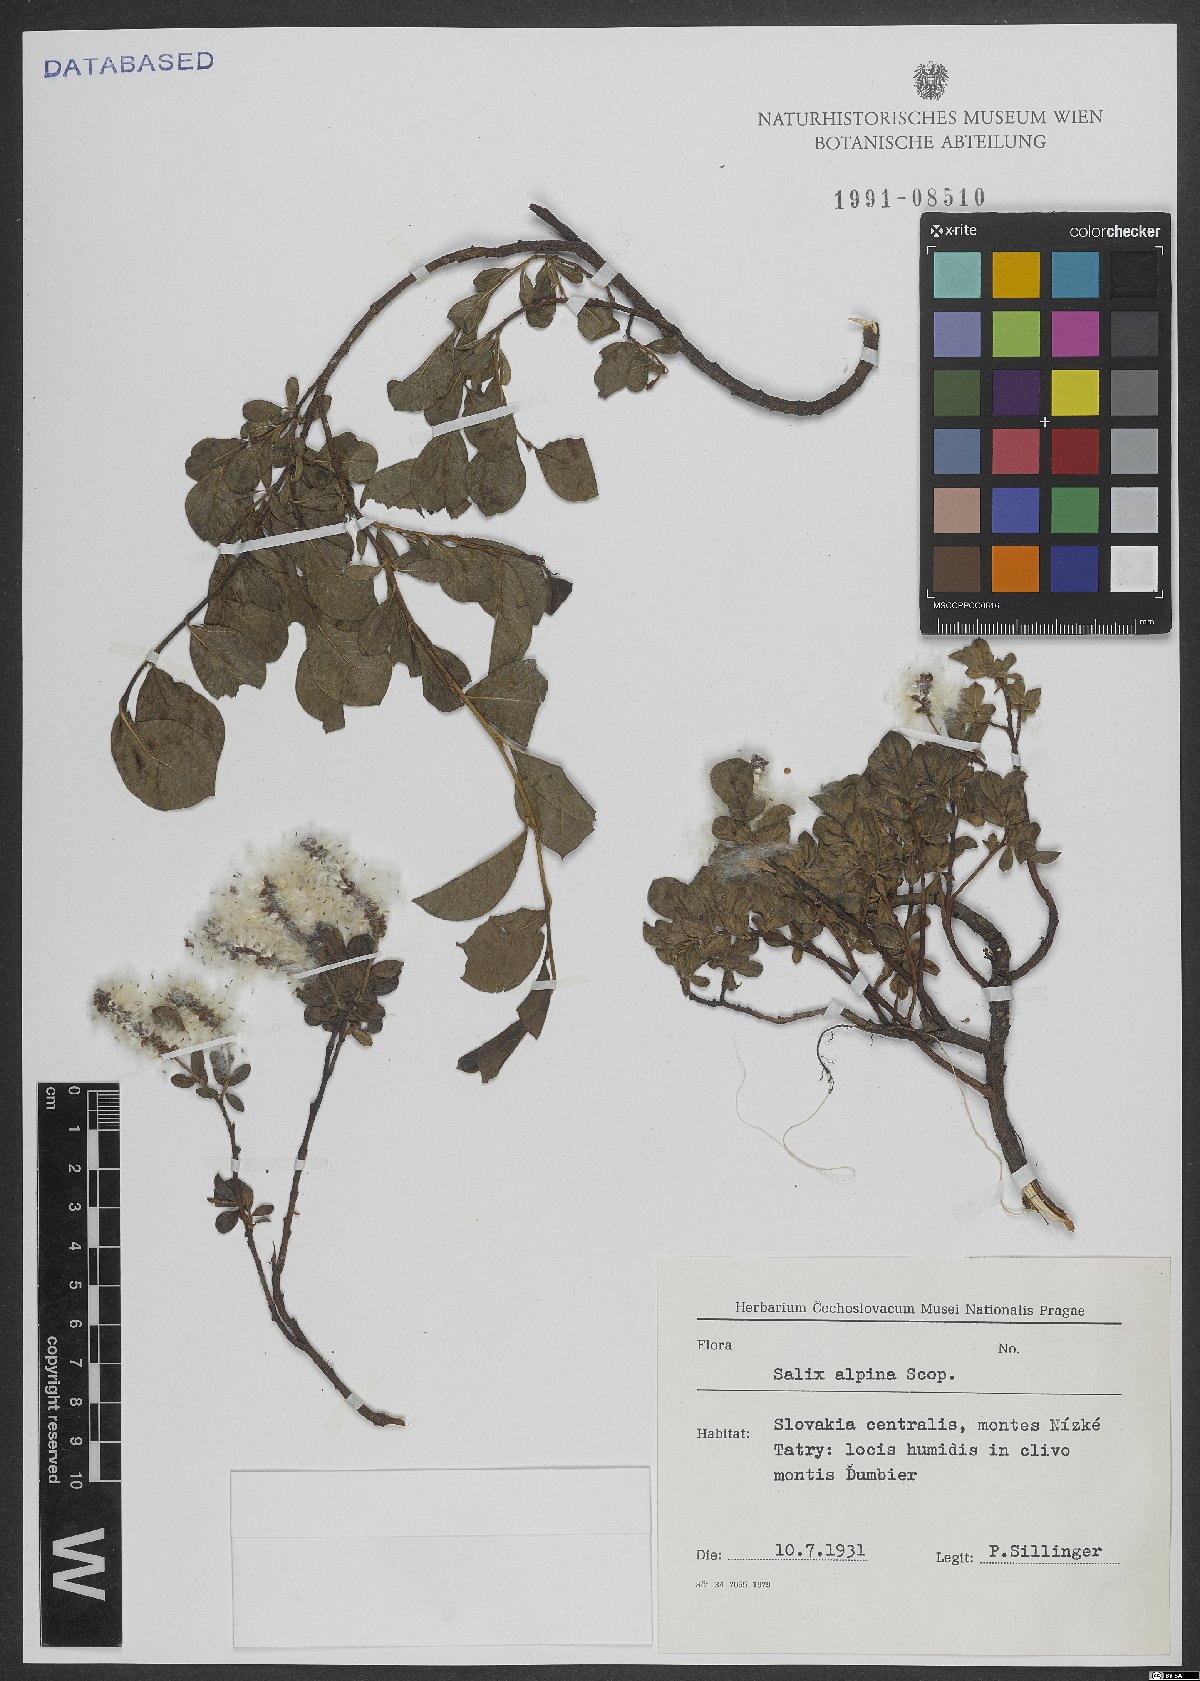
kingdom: Plantae
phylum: Tracheophyta
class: Magnoliopsida
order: Malpighiales
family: Salicaceae
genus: Salix
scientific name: Salix alpina
